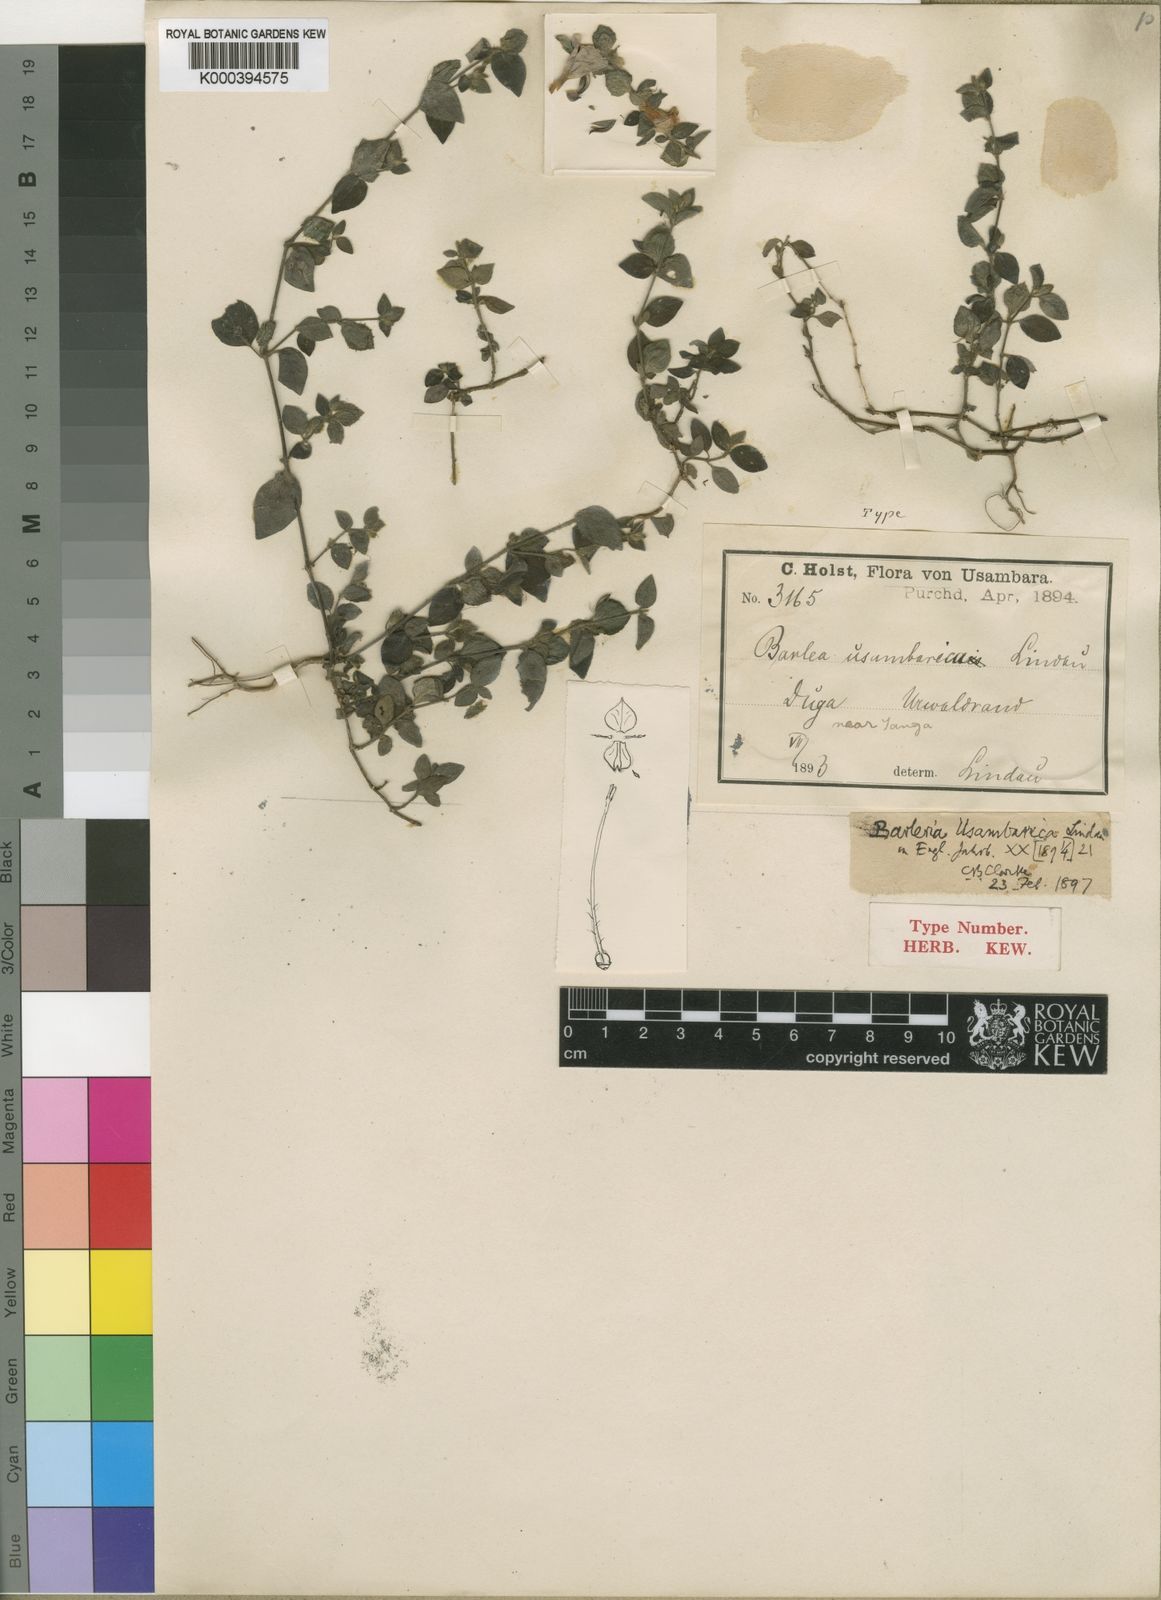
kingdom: Plantae
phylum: Tracheophyta
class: Magnoliopsida
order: Lamiales
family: Acanthaceae
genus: Barleria
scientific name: Barleria usambarica
